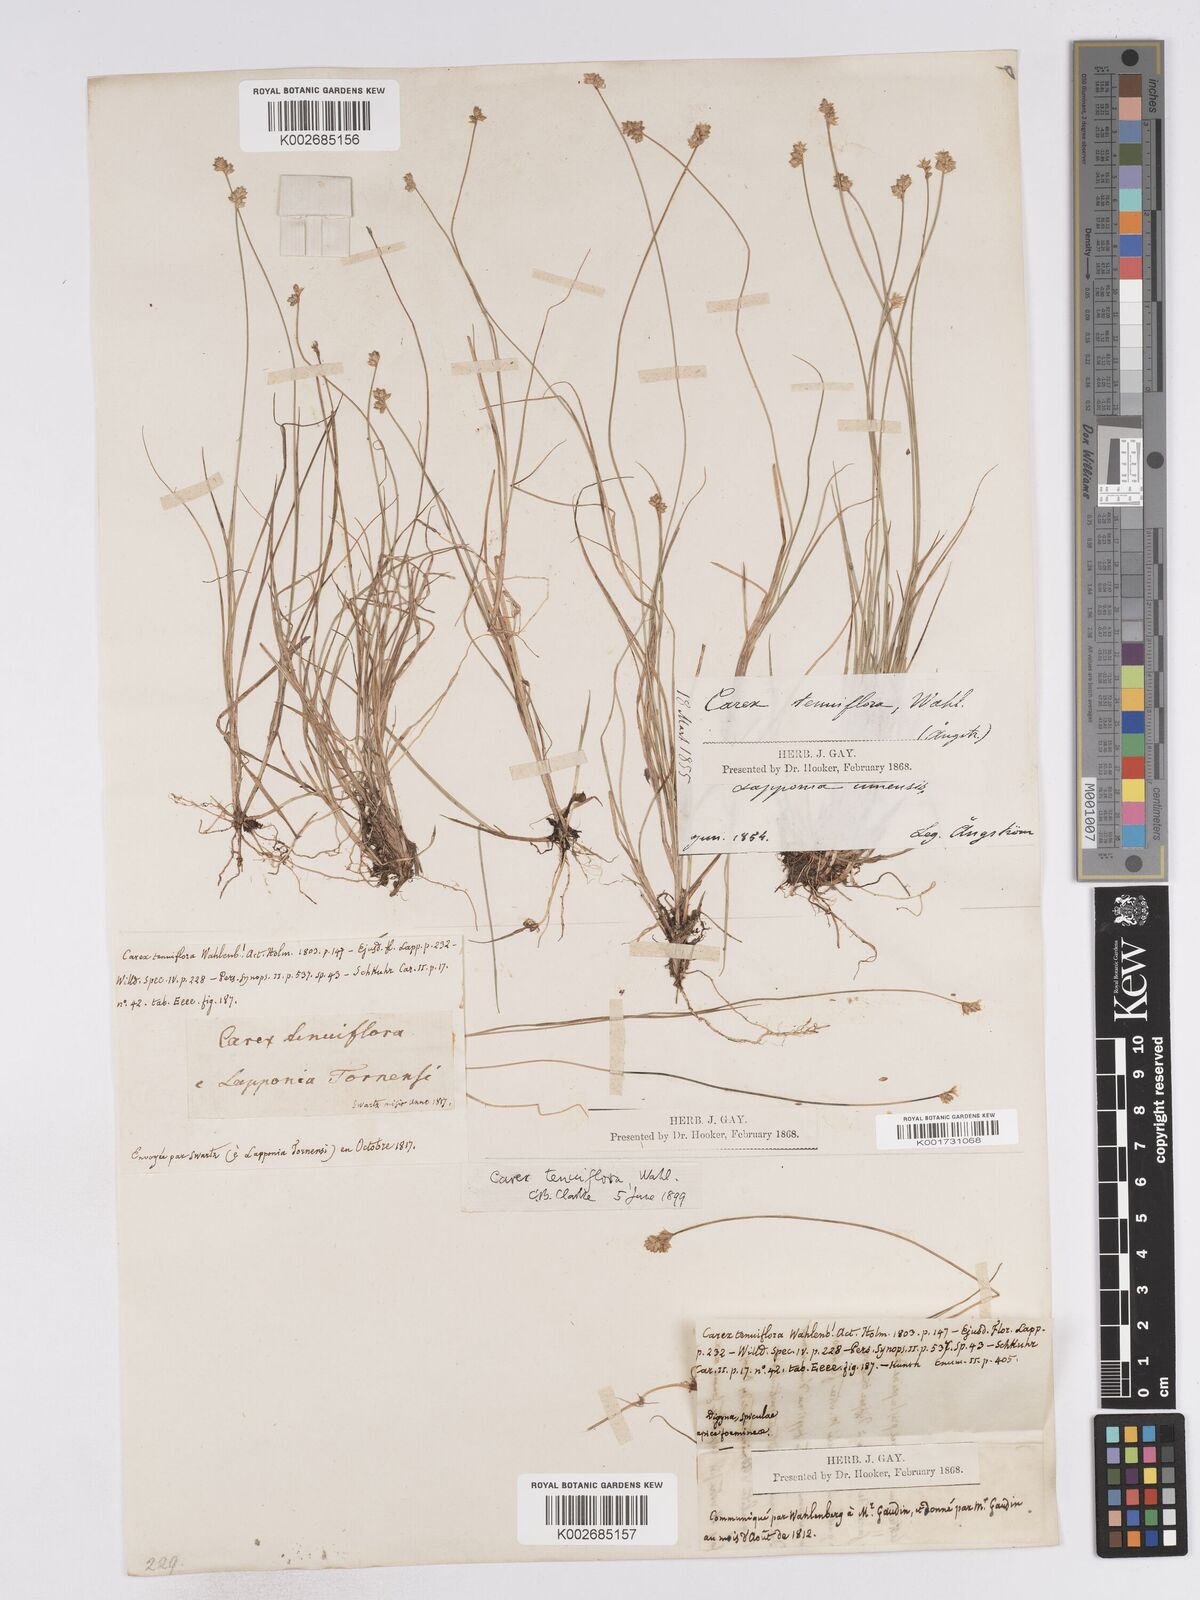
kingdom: Plantae
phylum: Tracheophyta
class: Liliopsida
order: Poales
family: Cyperaceae
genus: Carex
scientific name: Carex tenuiflora
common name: Sparse-flowered sedge
